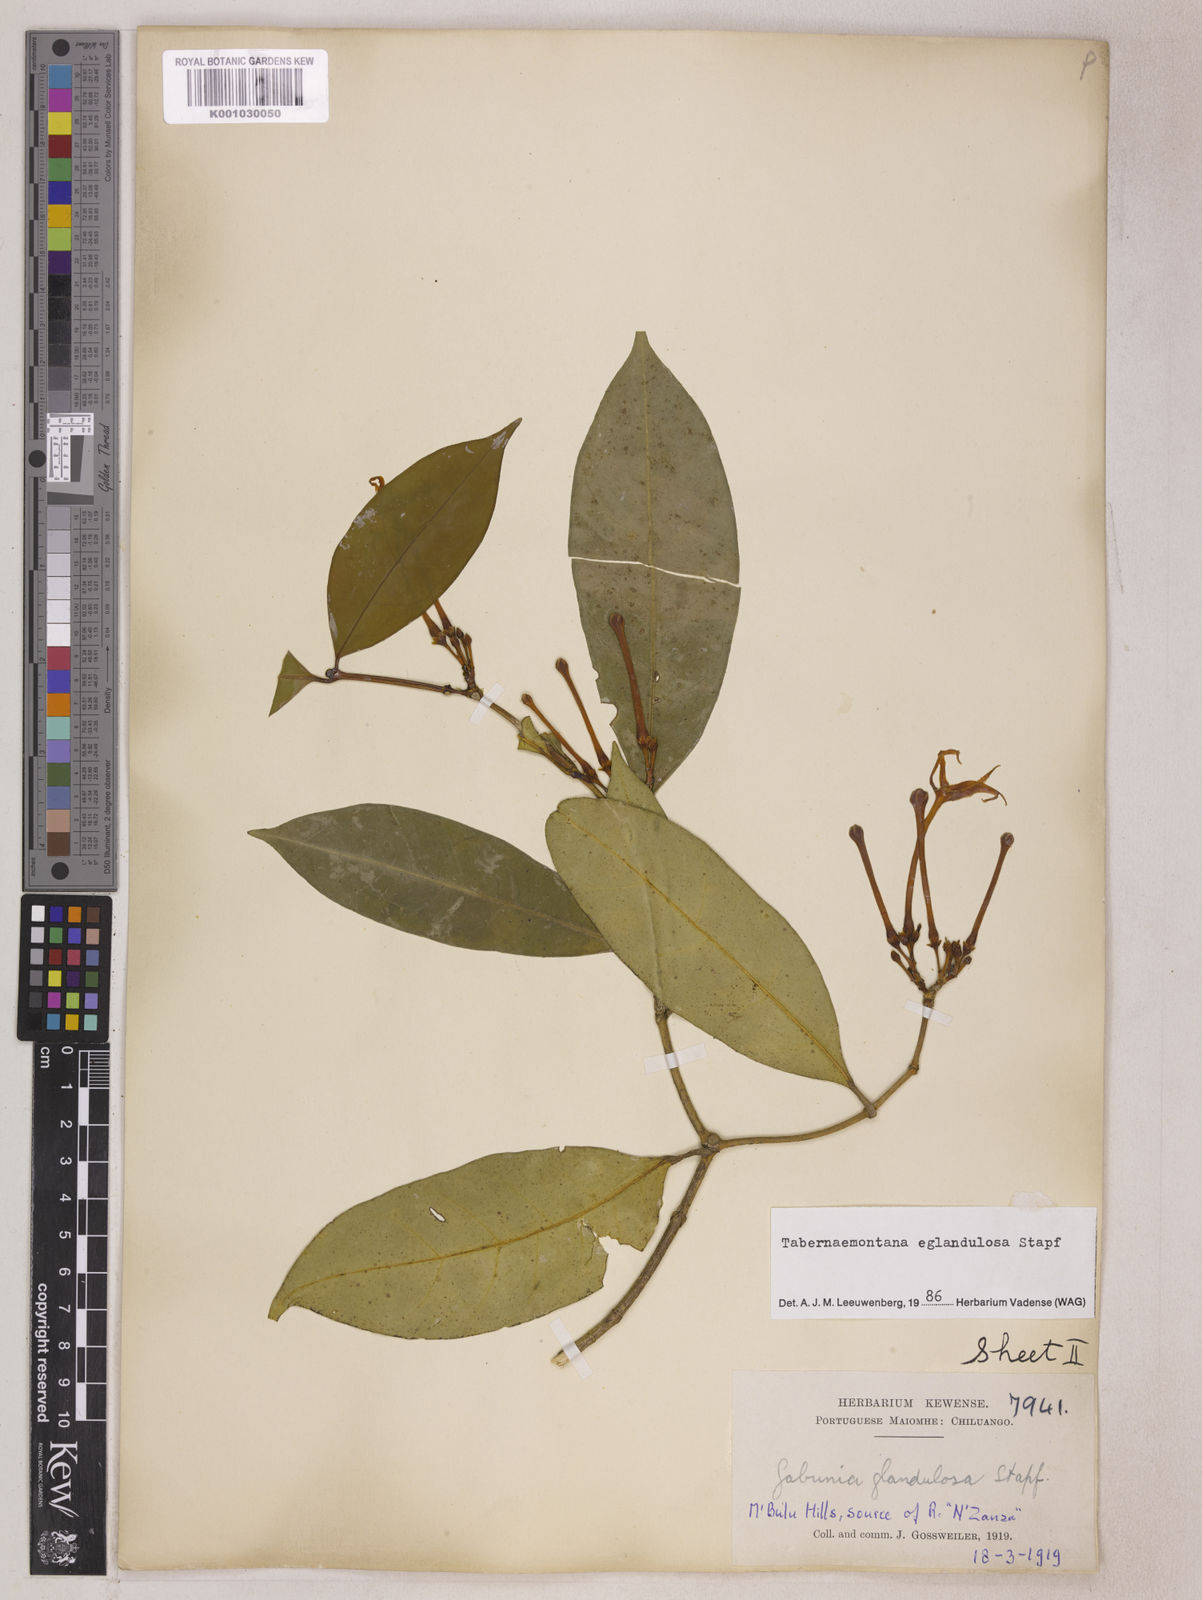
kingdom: Plantae
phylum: Tracheophyta
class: Magnoliopsida
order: Gentianales
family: Apocynaceae
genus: Tabernaemontana
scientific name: Tabernaemontana eglandulosa
